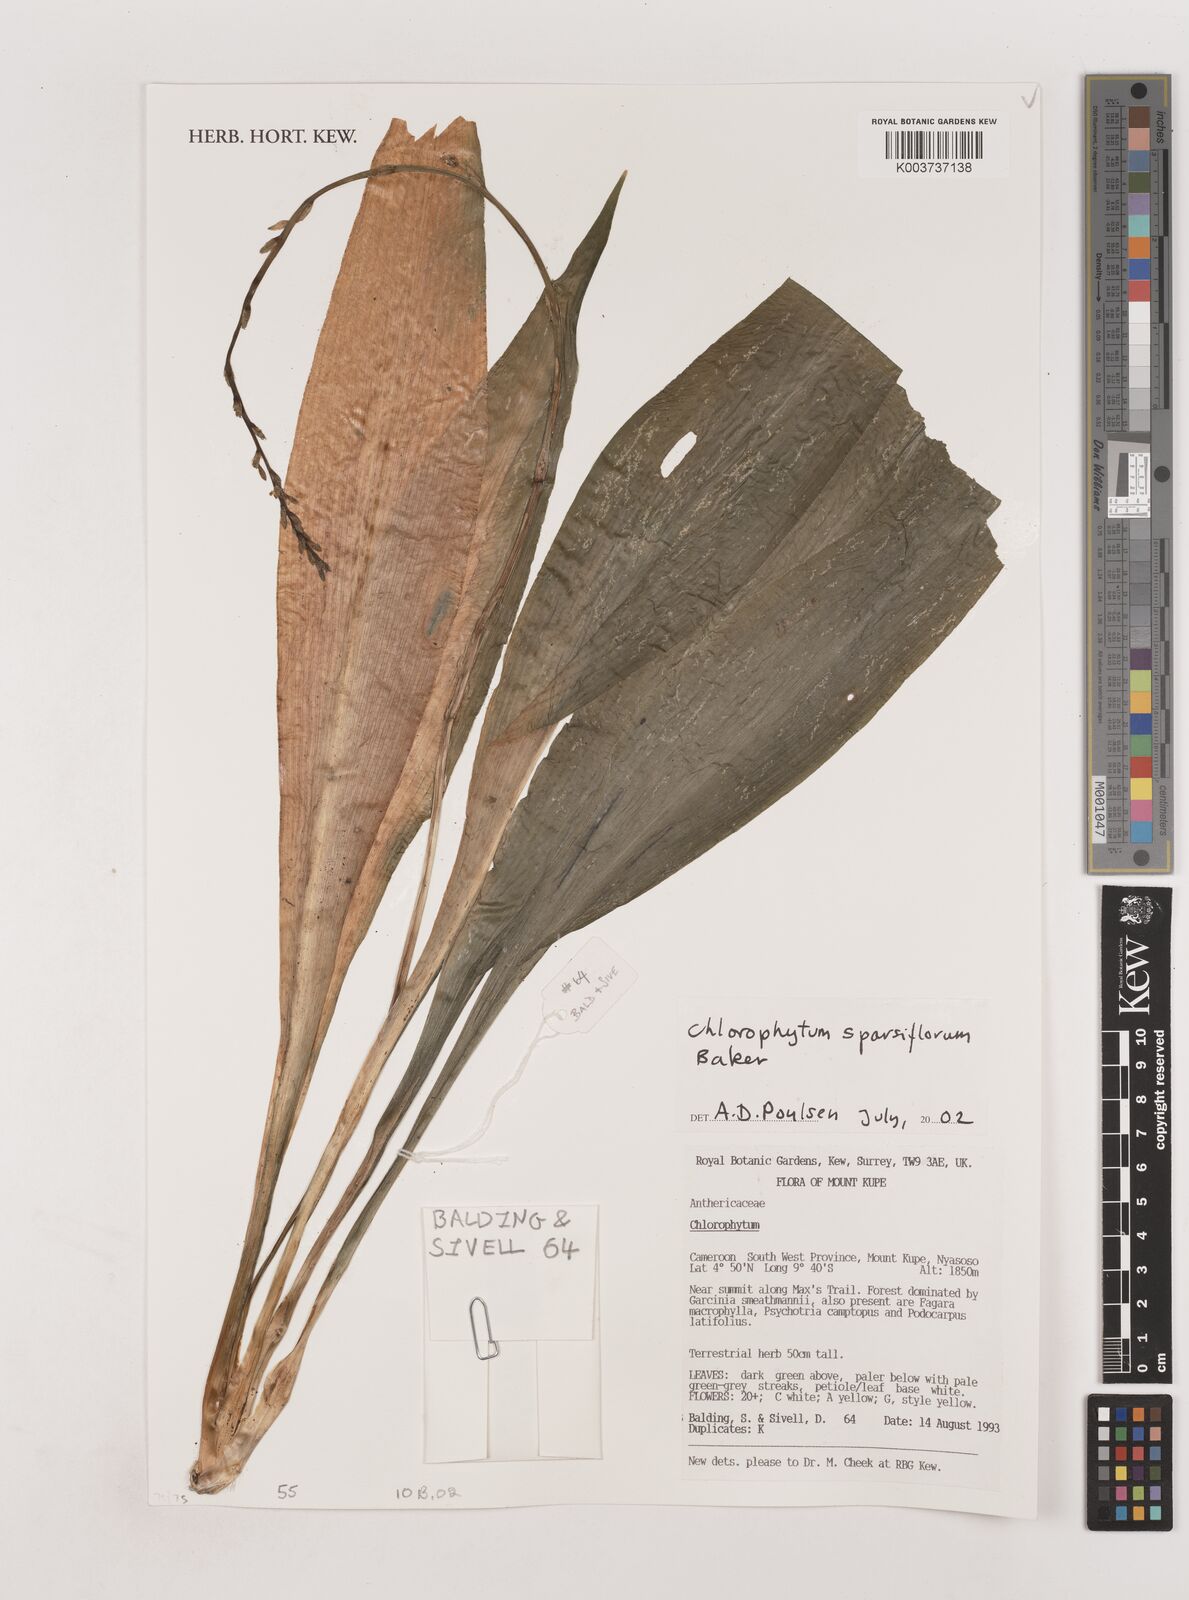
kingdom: Plantae
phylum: Tracheophyta
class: Liliopsida
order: Asparagales
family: Asparagaceae
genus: Chlorophytum
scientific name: Chlorophytum sparsiflorum
